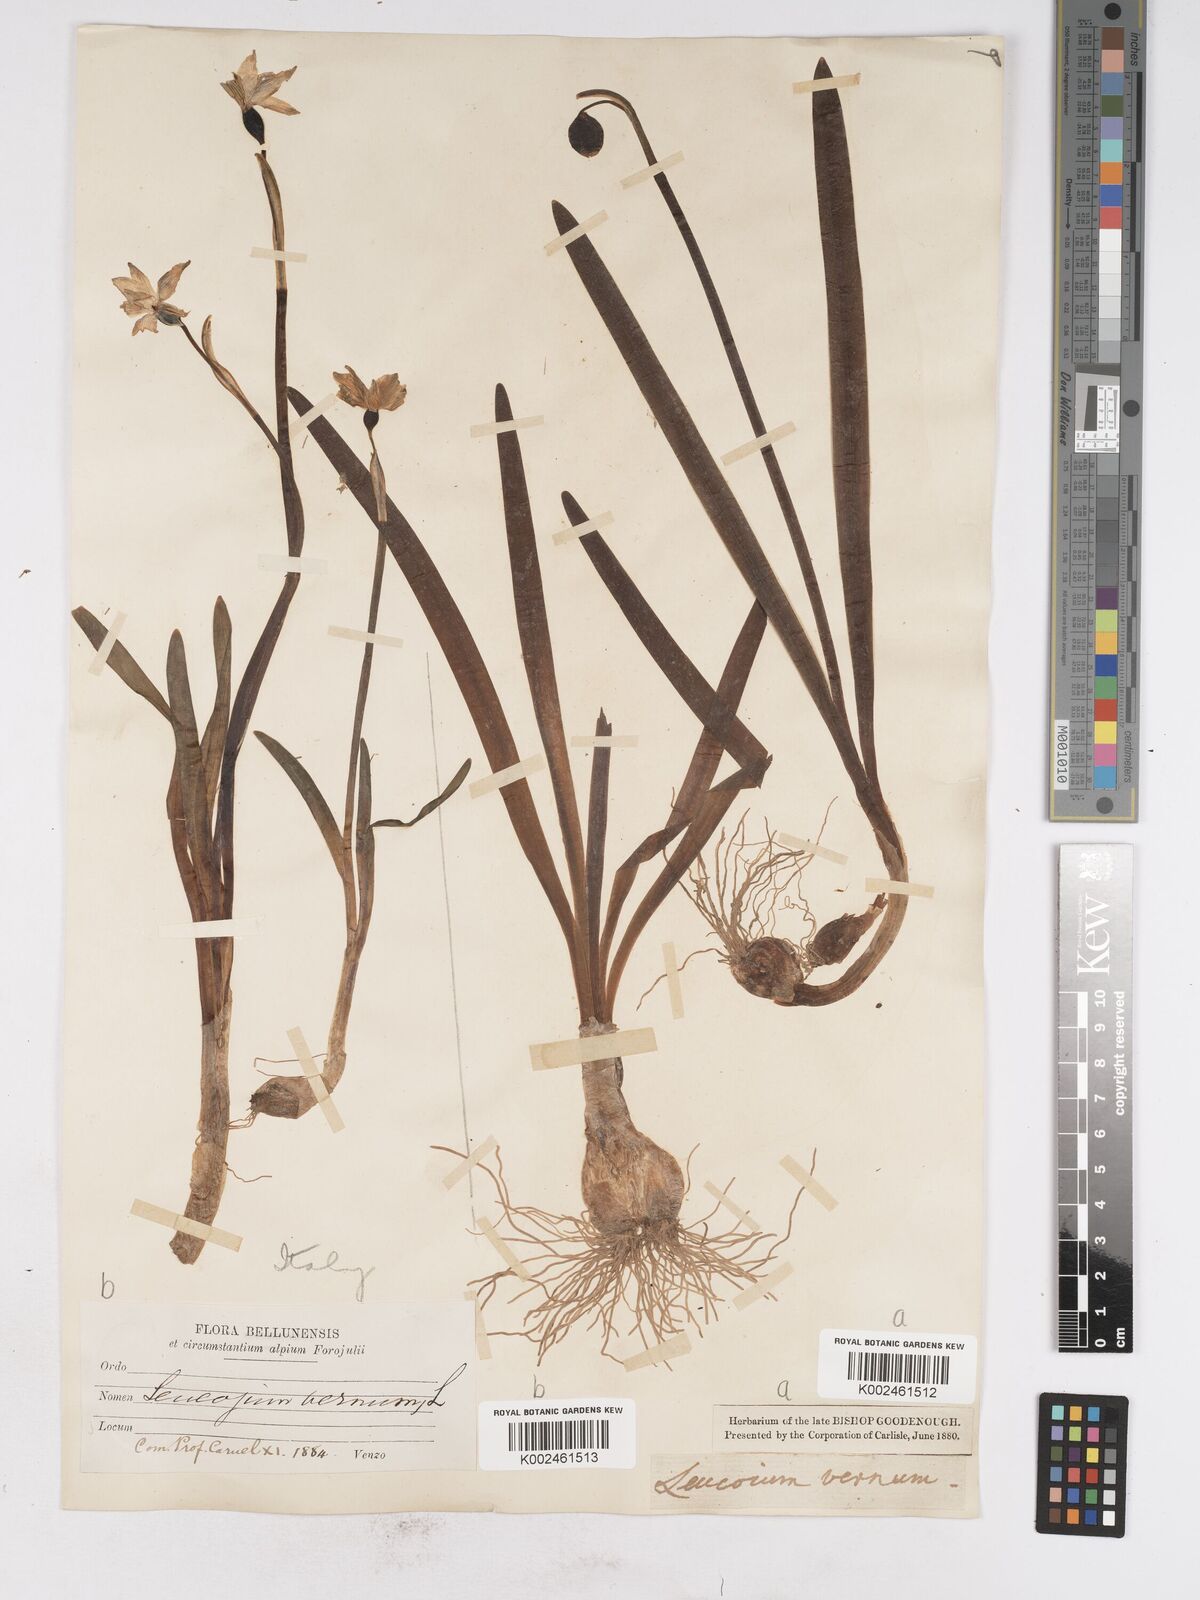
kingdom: Plantae
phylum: Tracheophyta
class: Liliopsida
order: Asparagales
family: Amaryllidaceae
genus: Leucojum
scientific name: Leucojum vernum
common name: Spring snowflake
